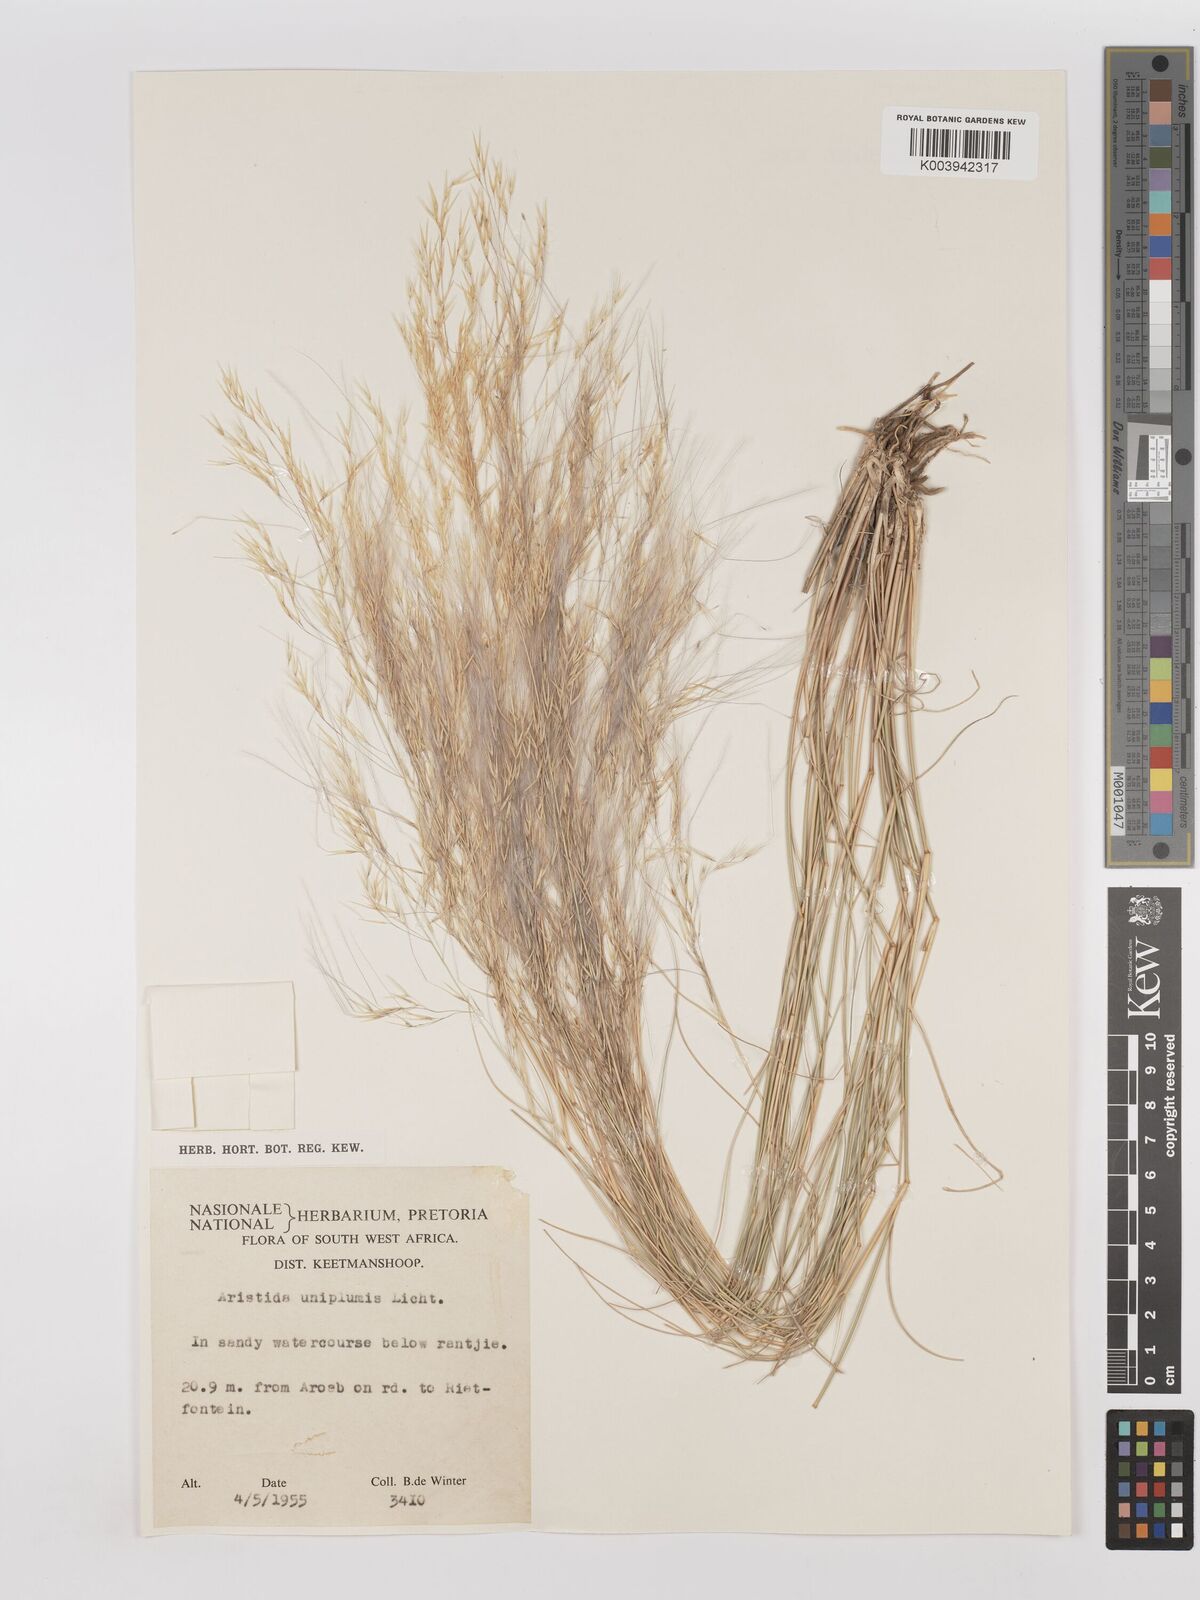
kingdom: Plantae
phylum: Tracheophyta
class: Liliopsida
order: Poales
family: Poaceae
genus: Stipagrostis
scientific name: Stipagrostis uniplumis
